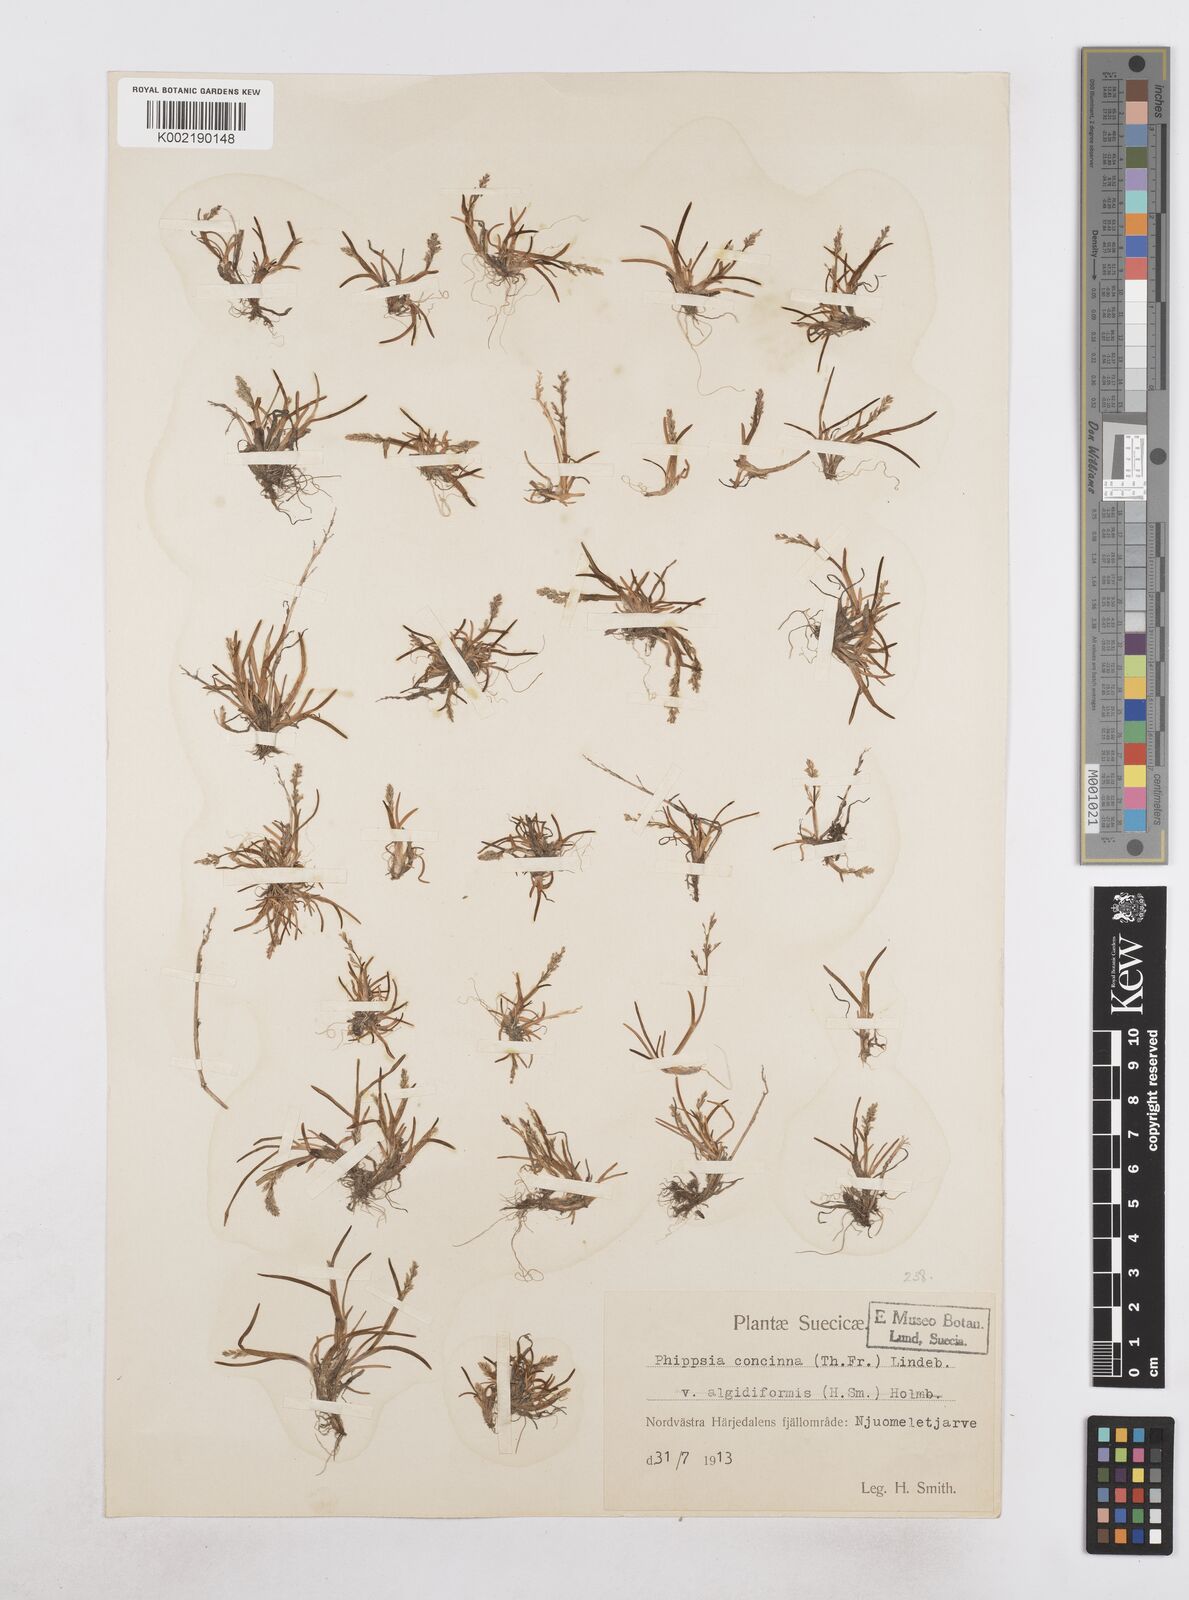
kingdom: Plantae
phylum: Tracheophyta
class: Liliopsida
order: Poales
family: Poaceae
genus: Phippsia
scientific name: Phippsia concinna
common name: Snowgrass
